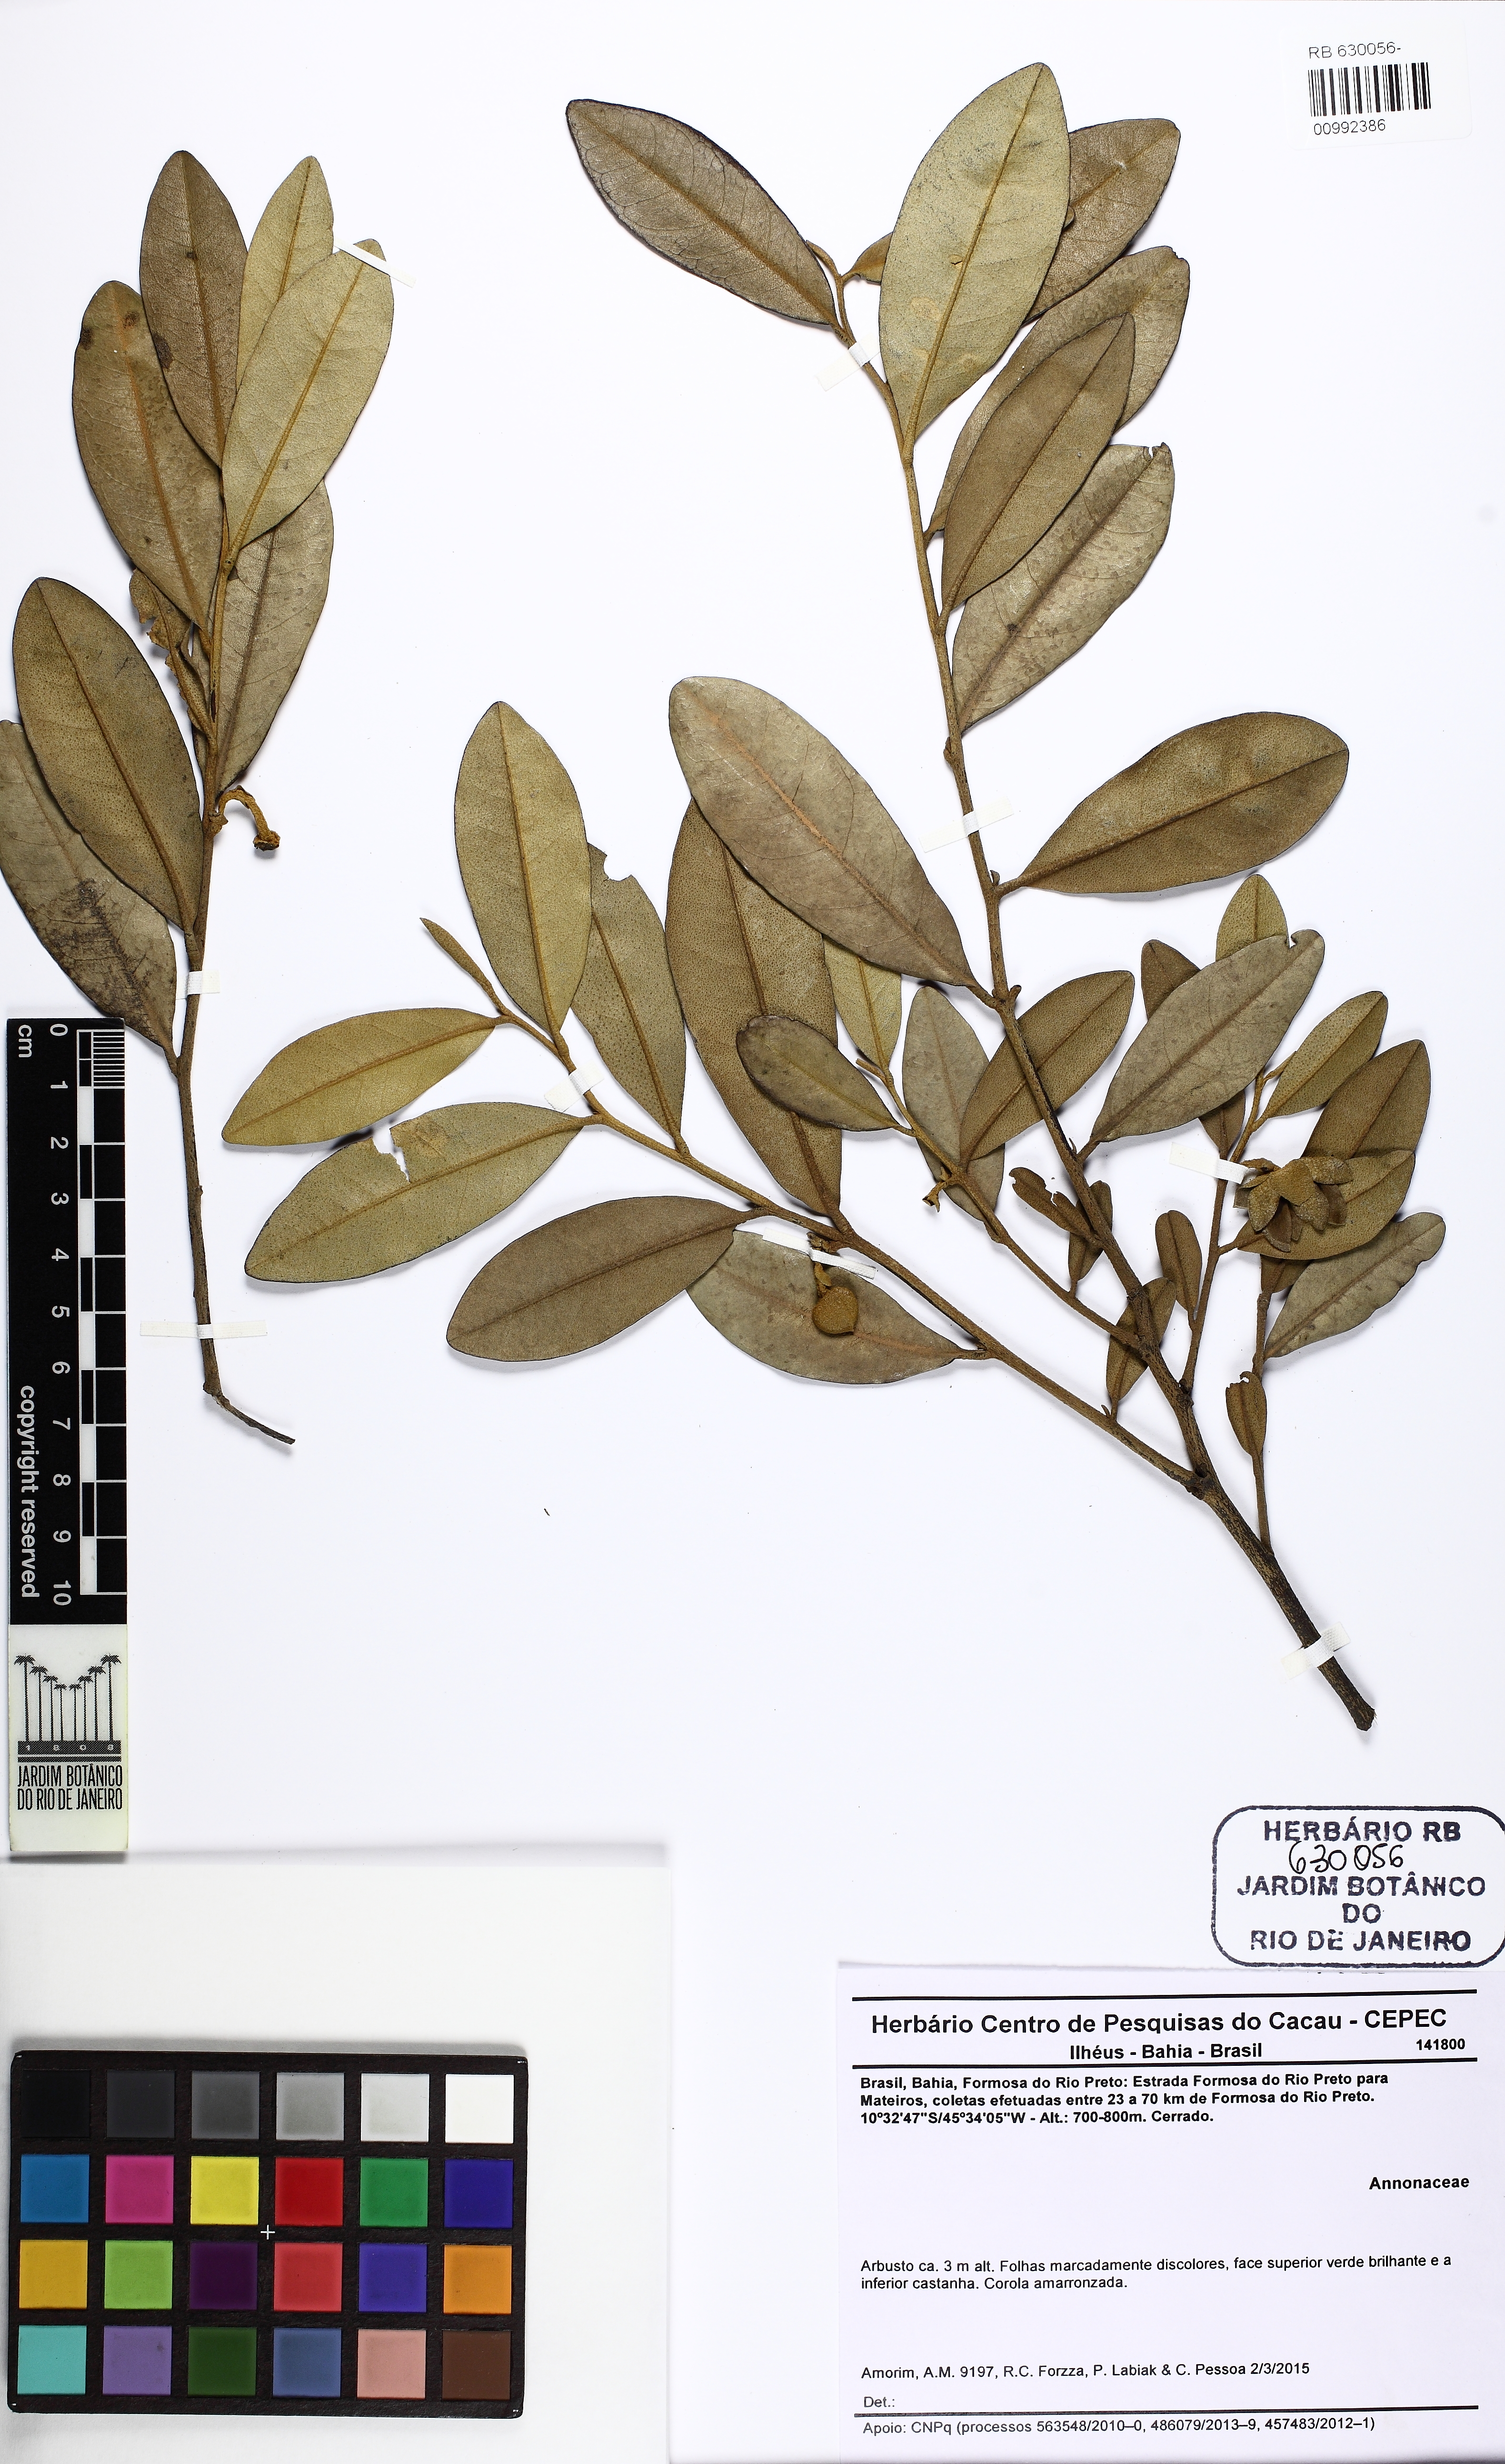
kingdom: Plantae
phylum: Tracheophyta
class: Magnoliopsida
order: Magnoliales
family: Annonaceae
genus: Duguetia
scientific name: Duguetia
